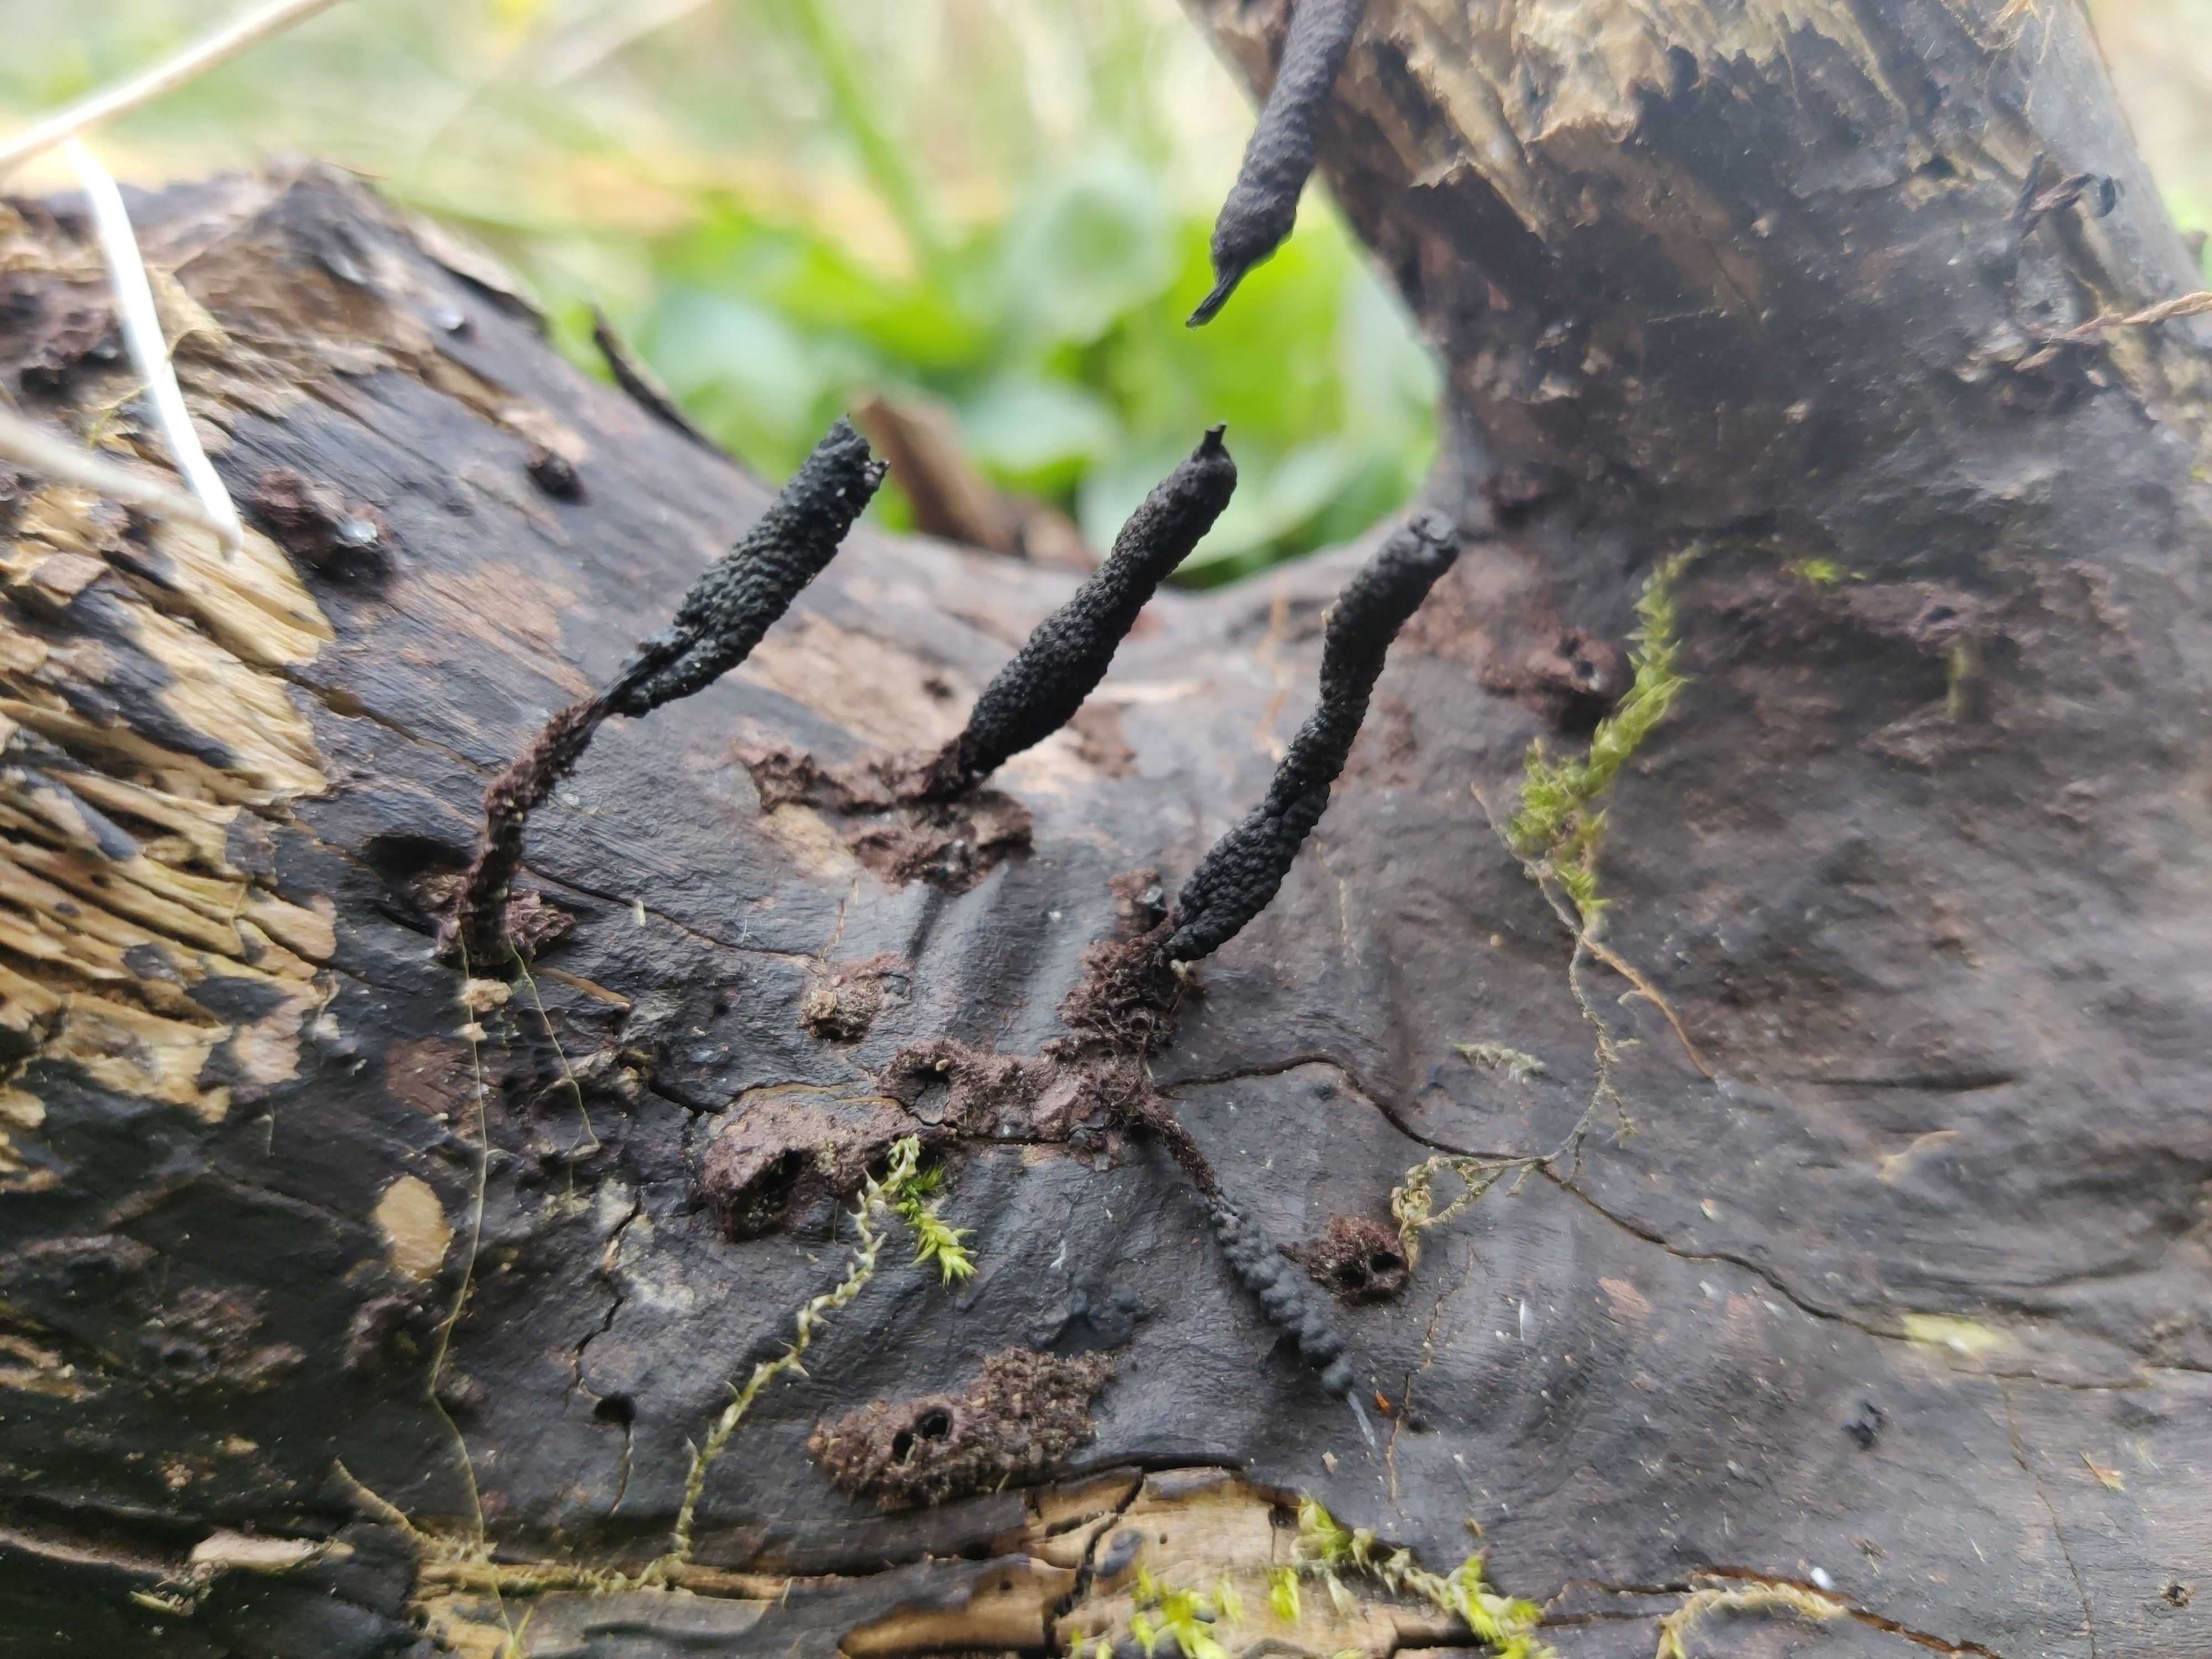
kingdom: Fungi
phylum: Ascomycota
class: Sordariomycetes
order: Xylariales
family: Xylariaceae
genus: Xylaria
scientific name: Xylaria longipes
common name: slank stødsvamp
